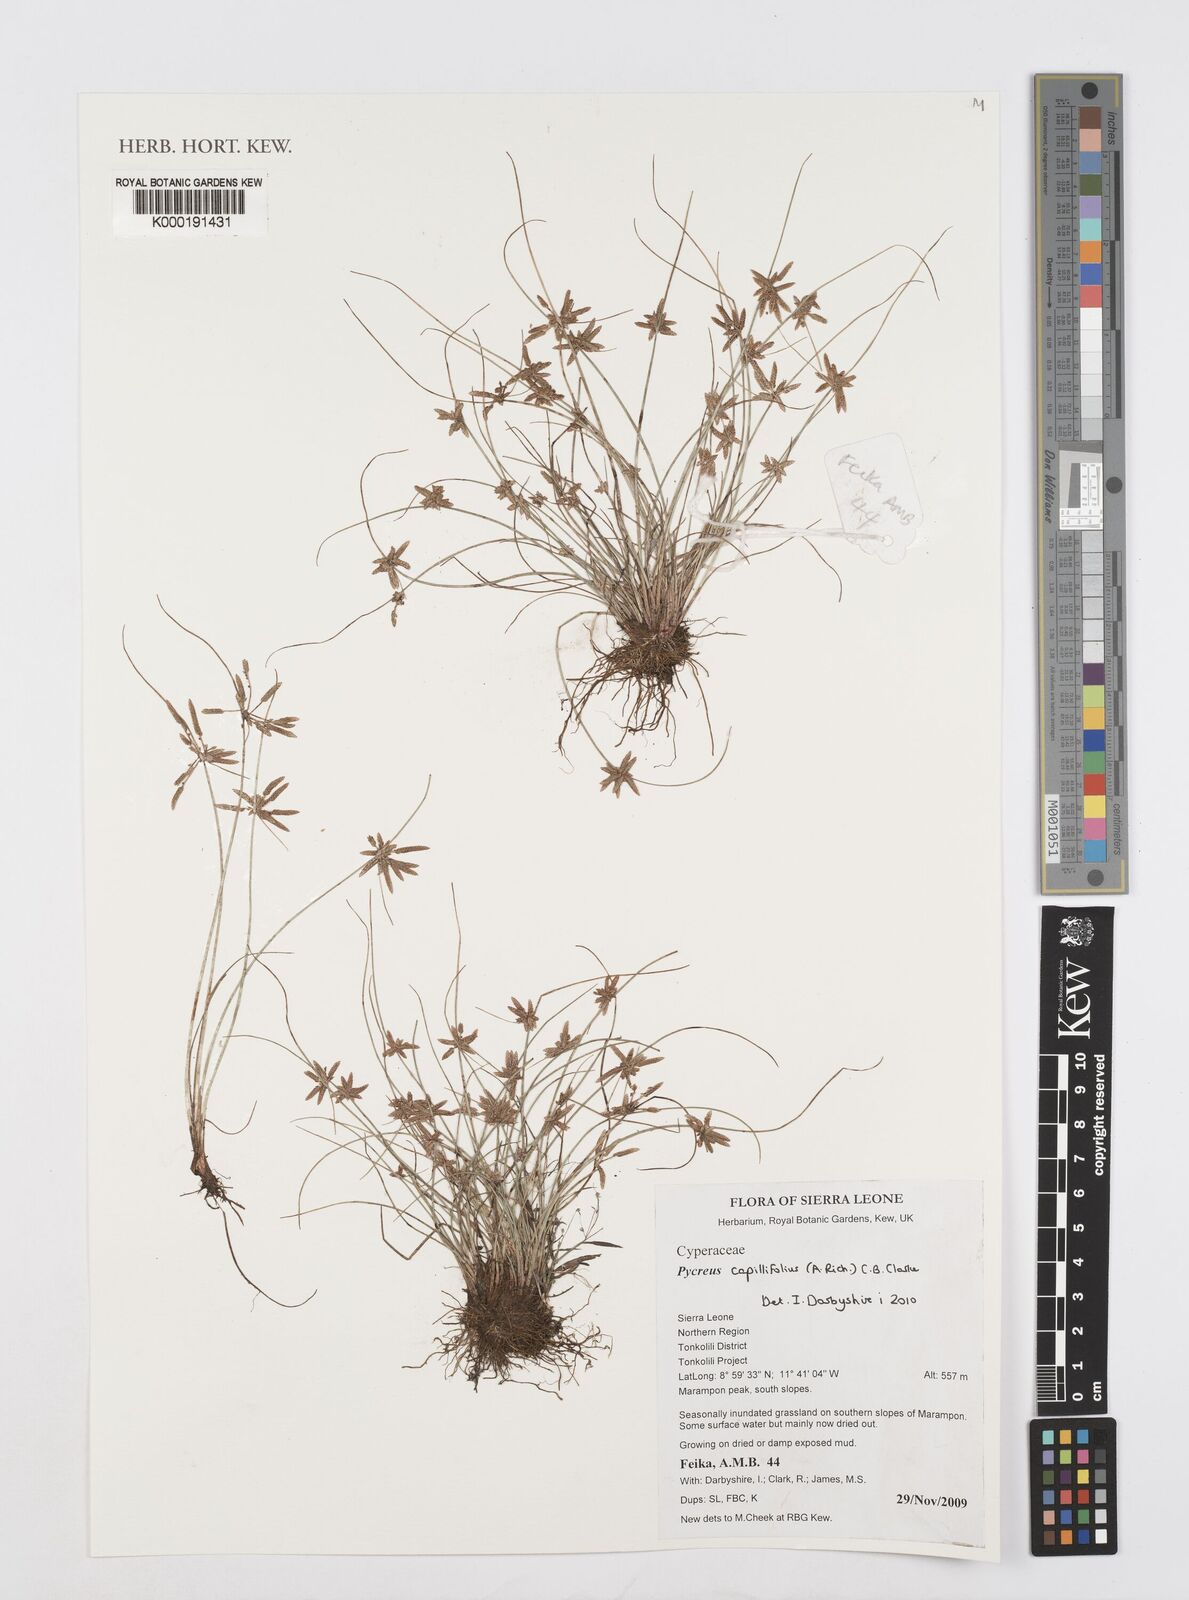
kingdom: Plantae
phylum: Tracheophyta
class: Liliopsida
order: Poales
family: Cyperaceae
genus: Cyperus
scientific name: Cyperus capillifolius
